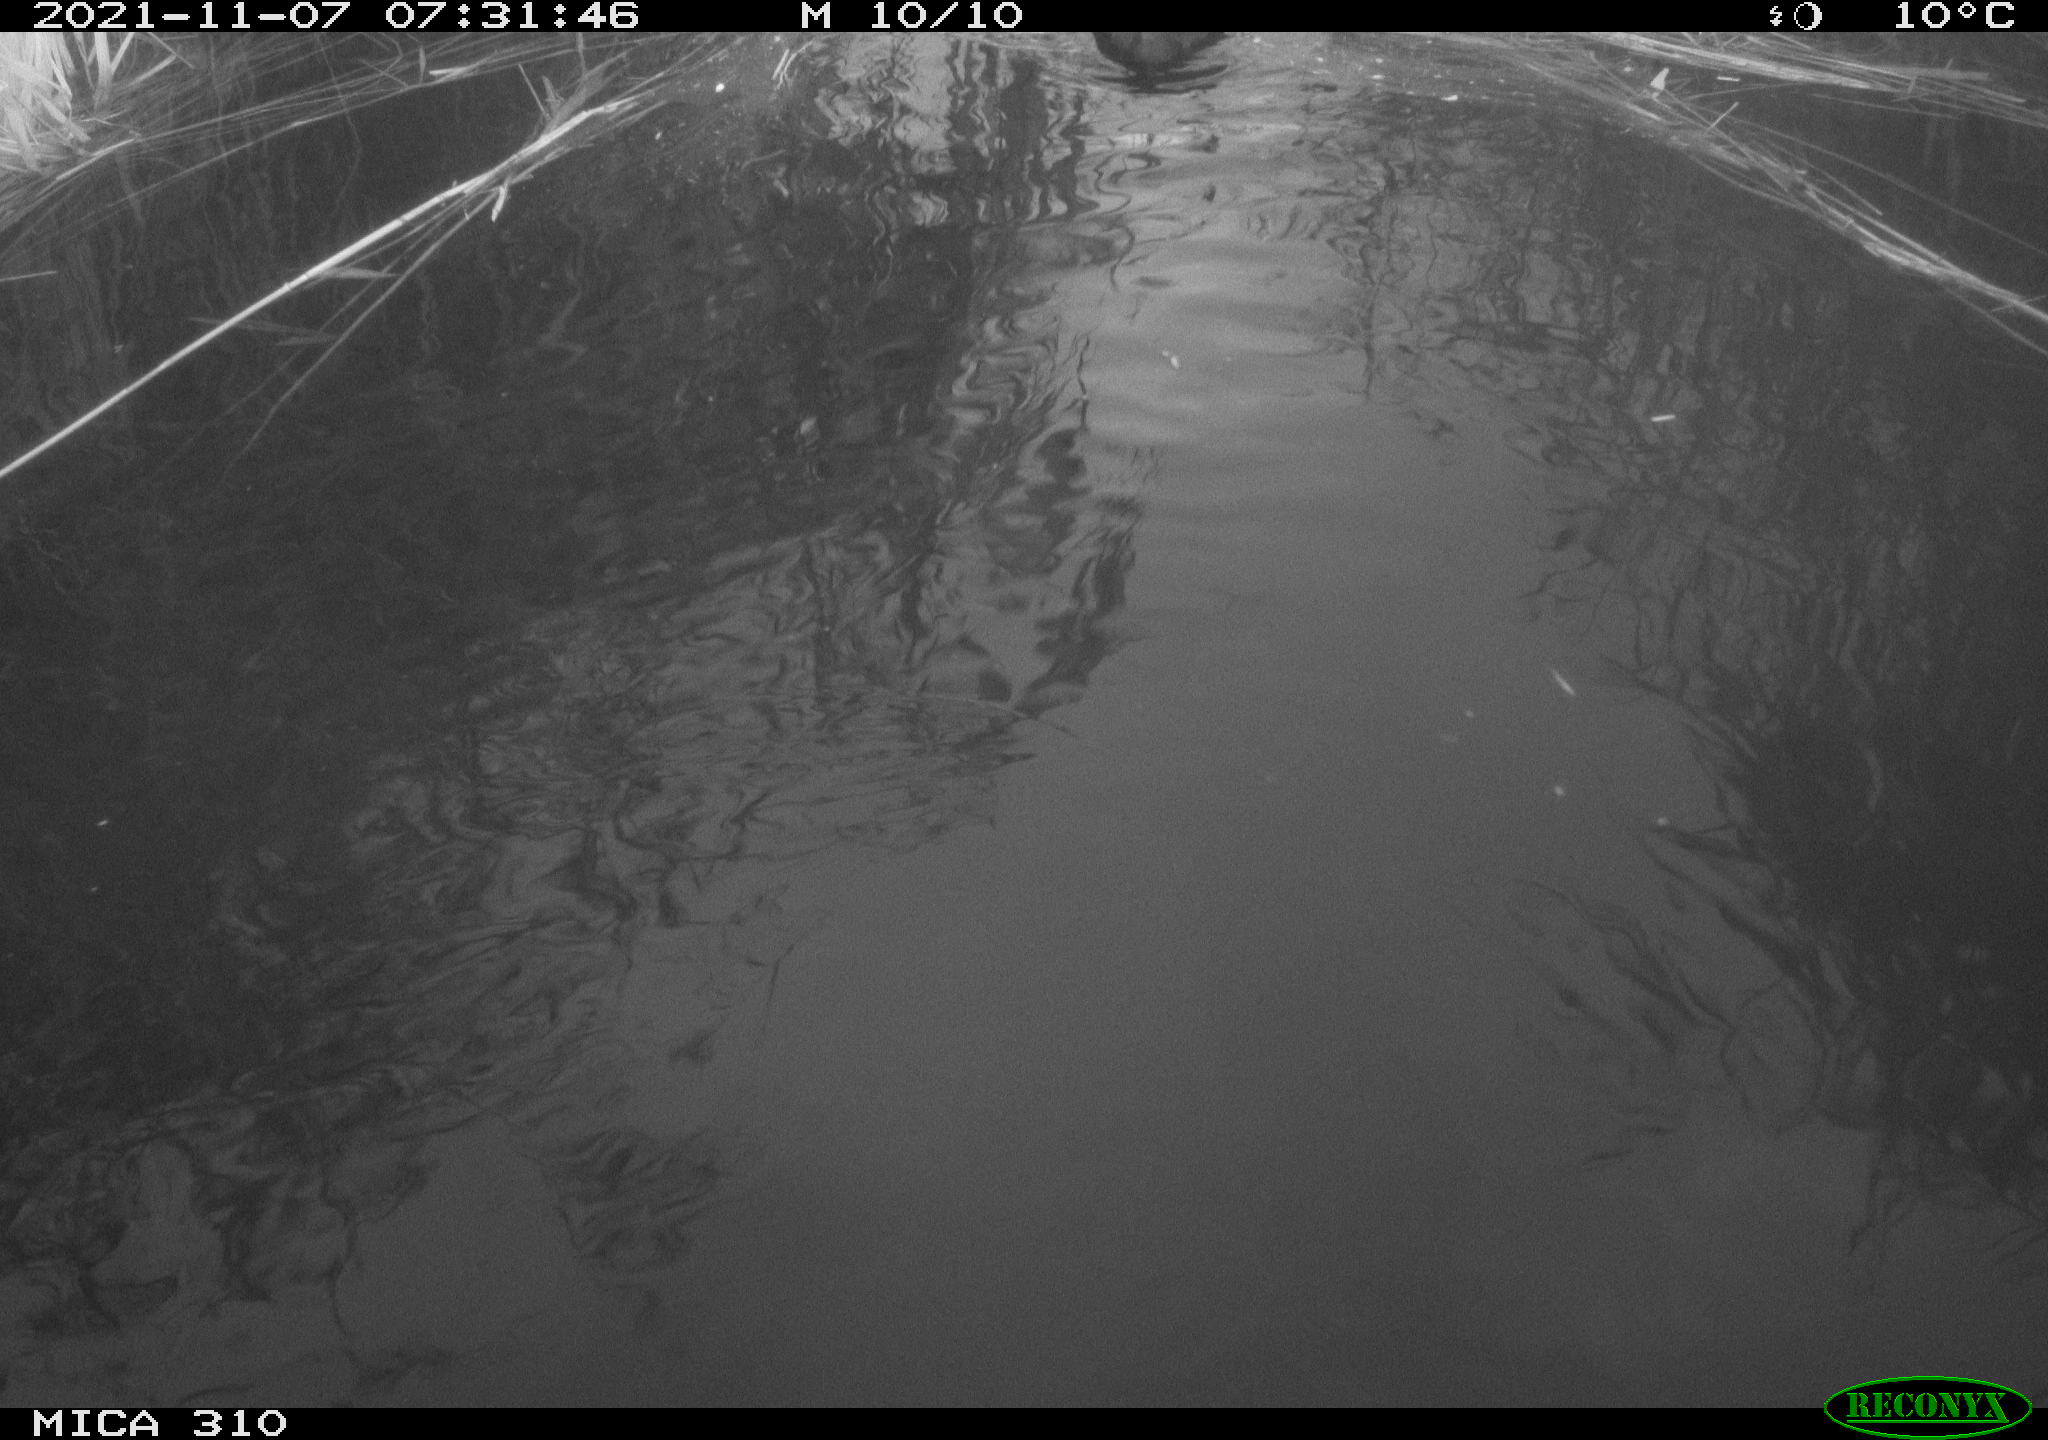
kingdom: Animalia
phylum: Chordata
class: Aves
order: Gruiformes
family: Rallidae
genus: Fulica
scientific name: Fulica atra
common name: Eurasian coot
